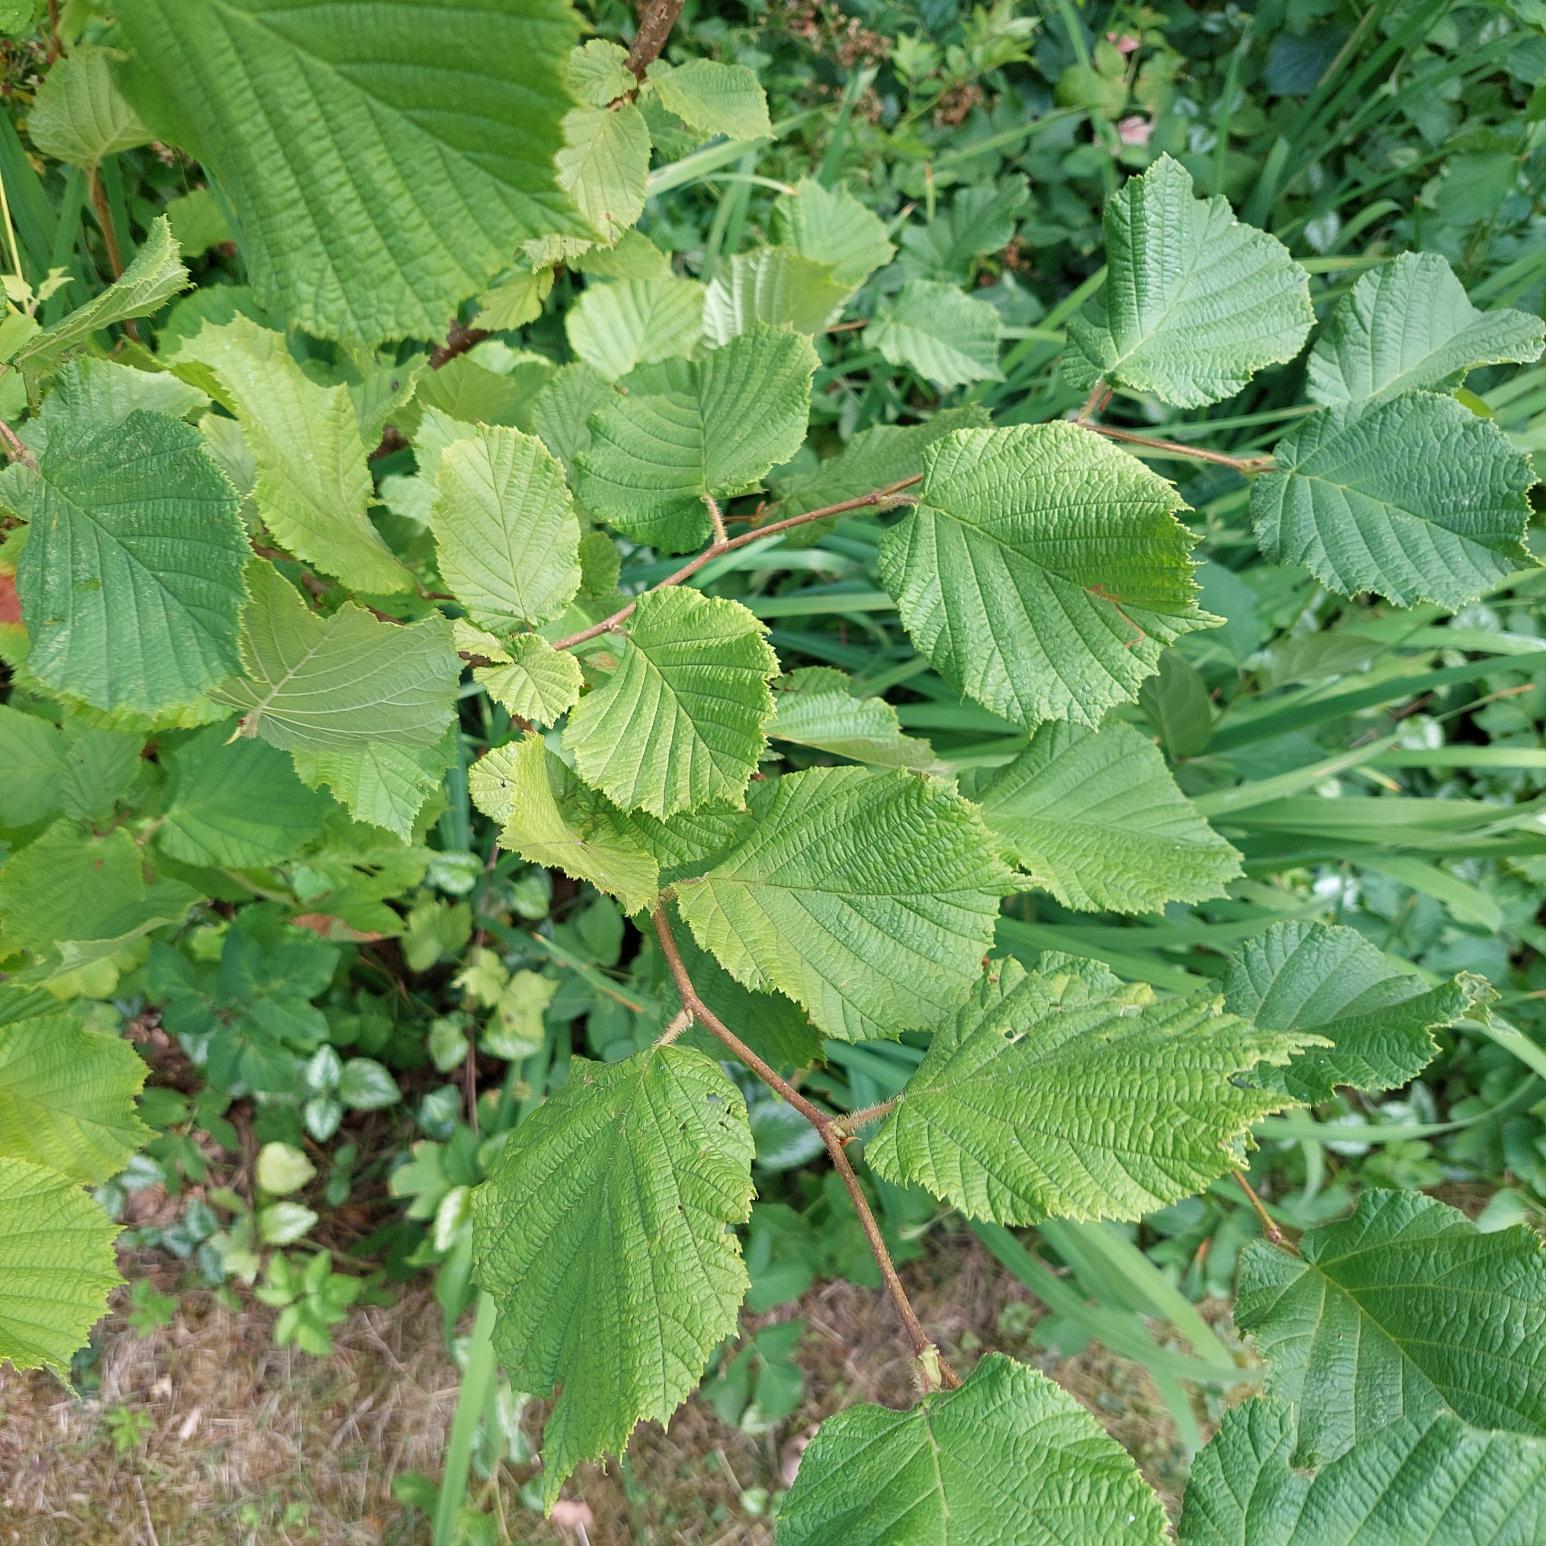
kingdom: Plantae
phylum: Tracheophyta
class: Magnoliopsida
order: Fagales
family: Betulaceae
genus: Corylus
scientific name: Corylus avellana
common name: Hassel
